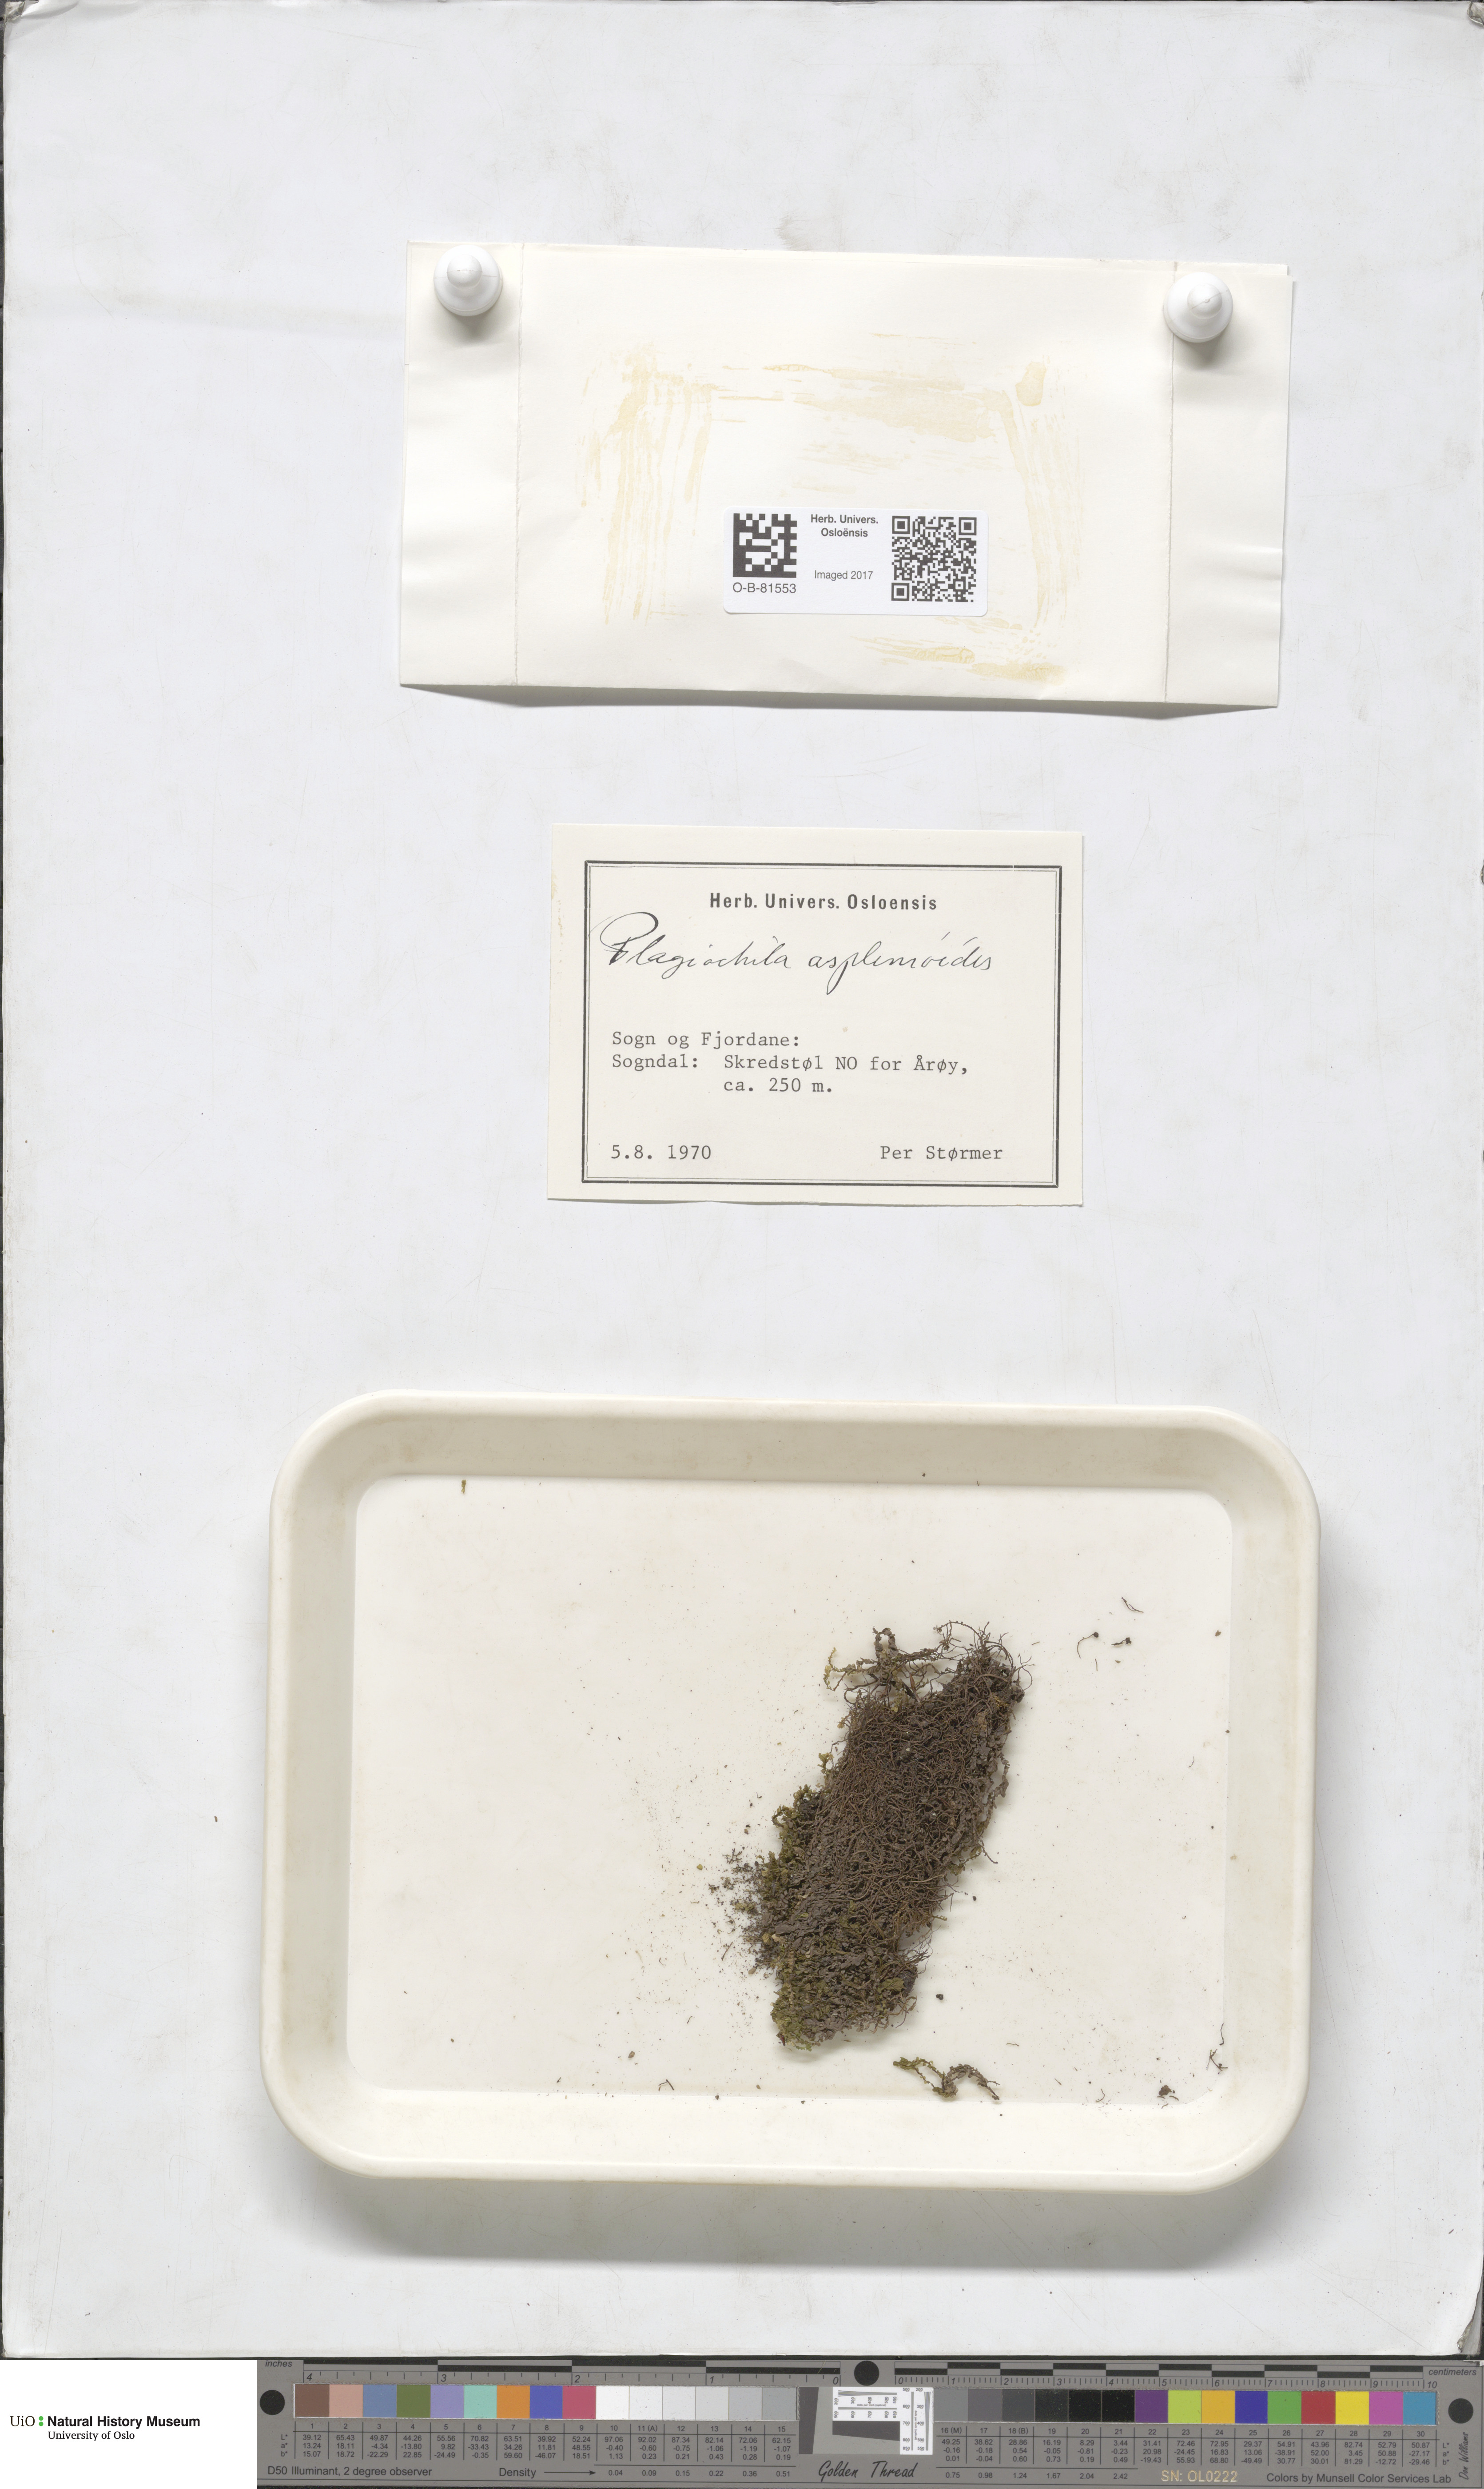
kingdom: Plantae
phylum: Marchantiophyta
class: Jungermanniopsida
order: Jungermanniales
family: Plagiochilaceae
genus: Plagiochila
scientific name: Plagiochila asplenioides
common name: Greater featherwort
